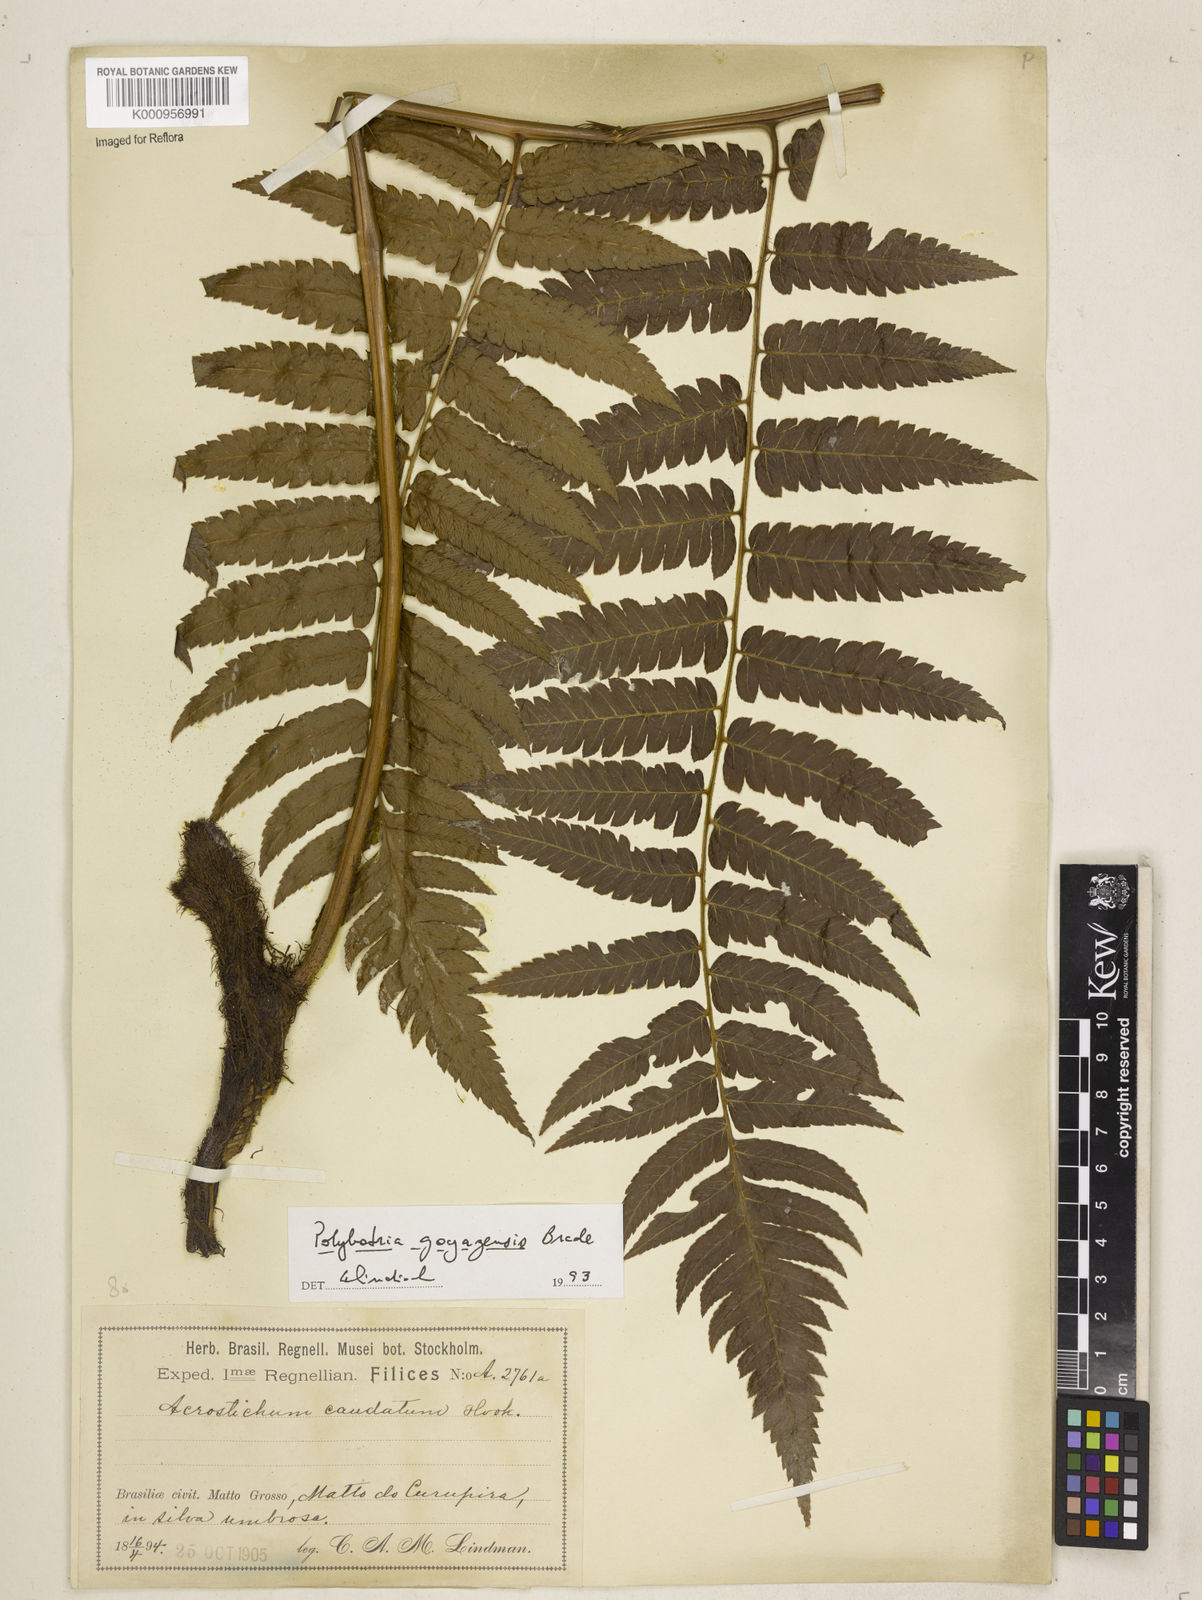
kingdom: Plantae
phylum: Tracheophyta
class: Polypodiopsida
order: Polypodiales
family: Dryopteridaceae
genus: Polybotrya
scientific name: Polybotrya goyazensis
